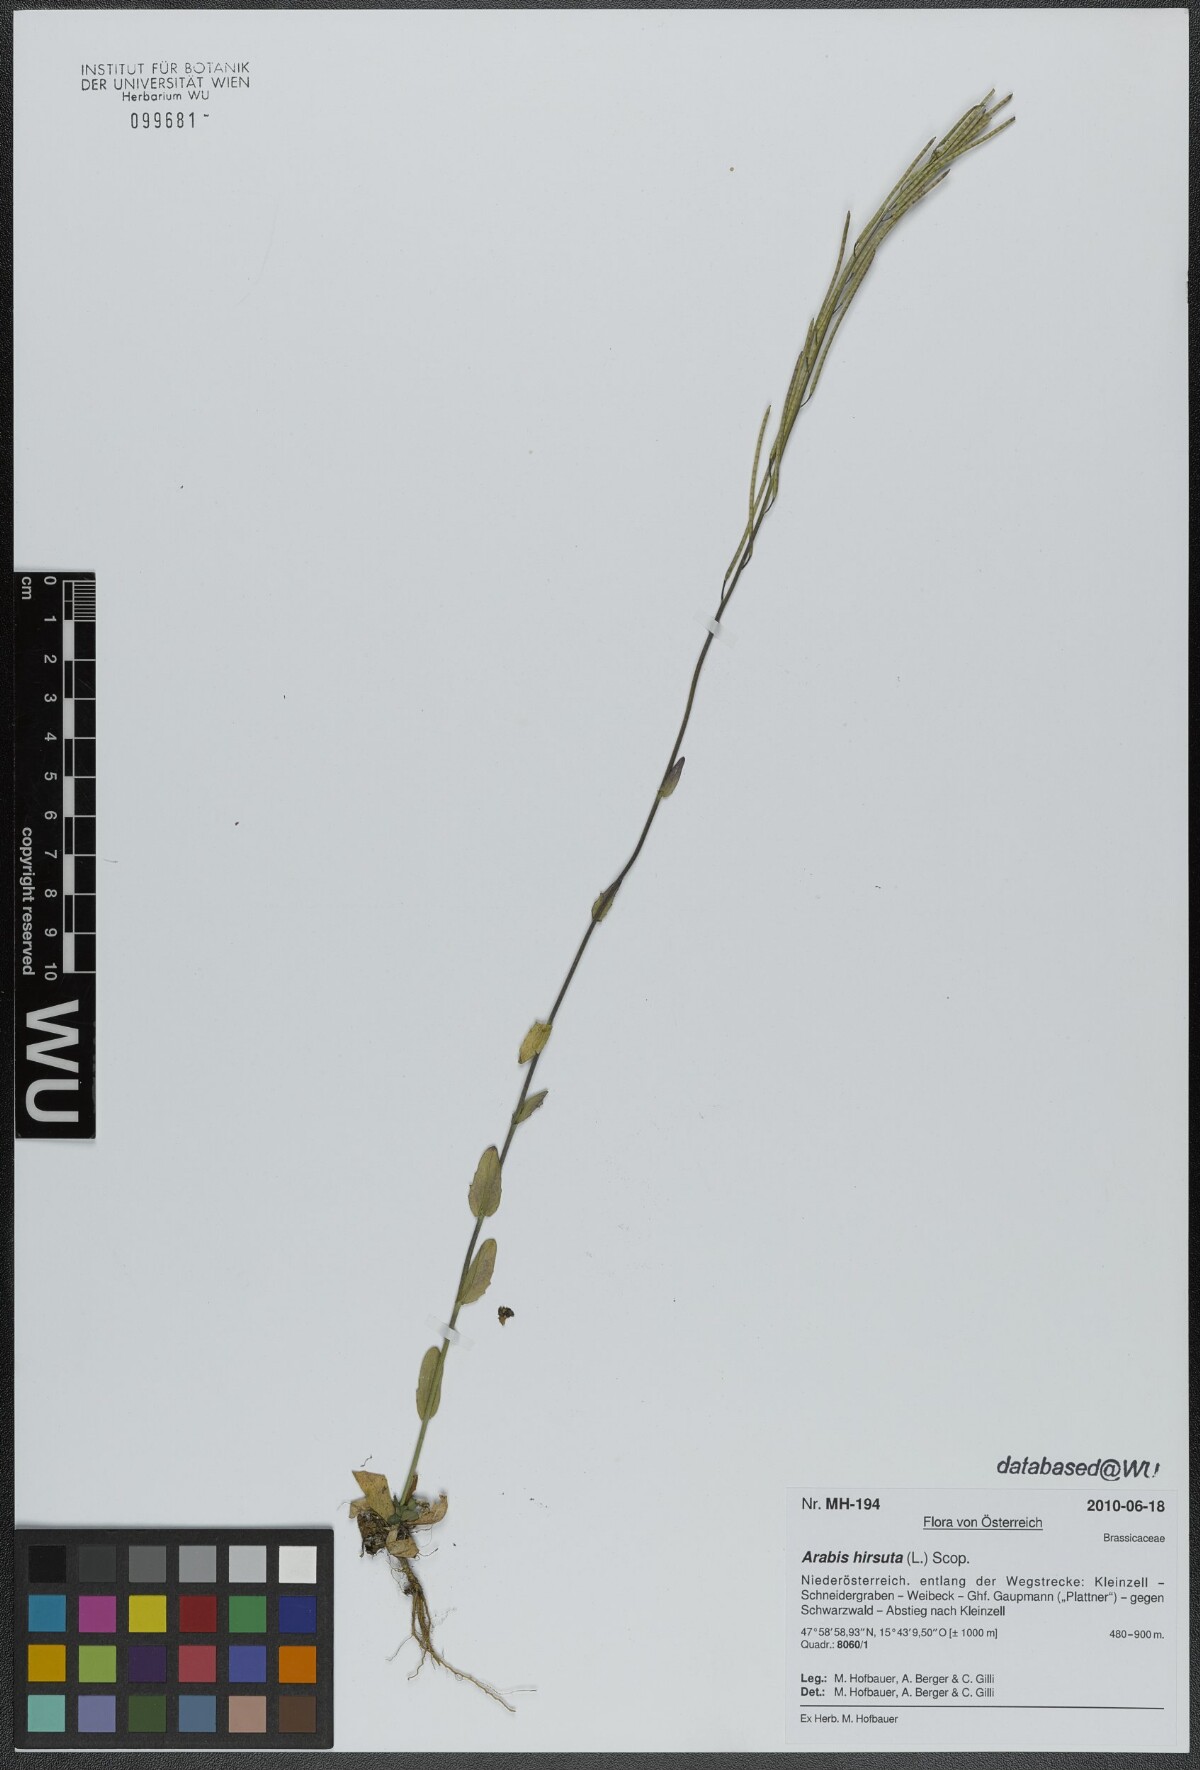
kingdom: Plantae
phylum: Tracheophyta
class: Magnoliopsida
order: Brassicales
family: Brassicaceae
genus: Arabis
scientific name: Arabis hirsuta
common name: Hairy rock-cress
